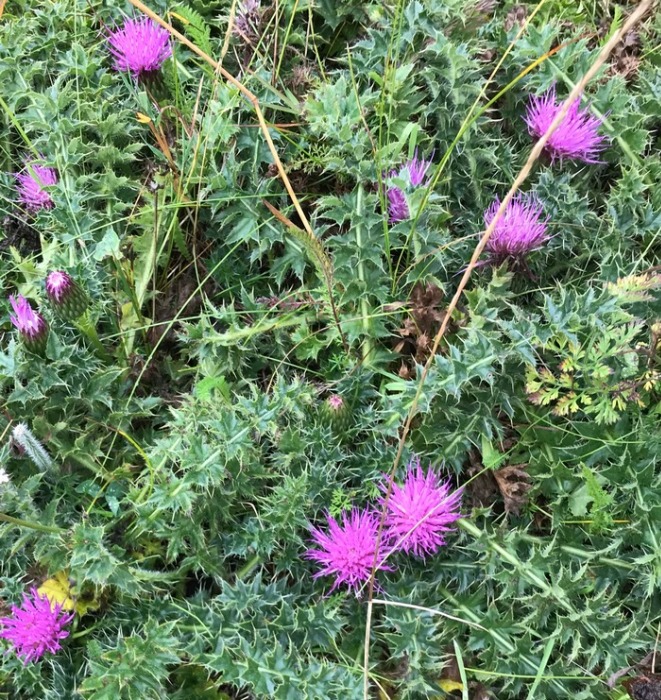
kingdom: Plantae
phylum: Tracheophyta
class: Magnoliopsida
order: Asterales
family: Asteraceae
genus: Cirsium
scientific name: Cirsium acaule
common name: Lav tidsel
